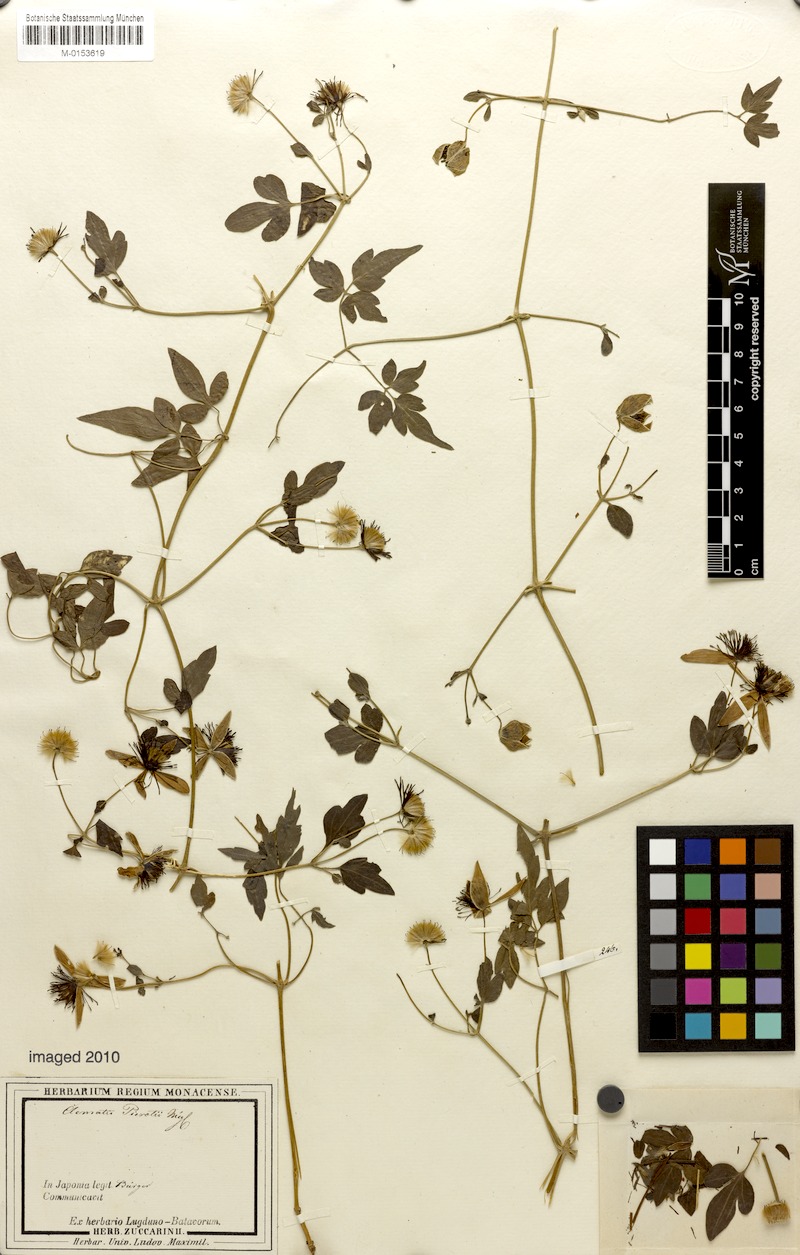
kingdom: Plantae
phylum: Tracheophyta
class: Magnoliopsida
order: Ranunculales
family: Ranunculaceae
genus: Clematis
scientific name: Clematis parviloba
